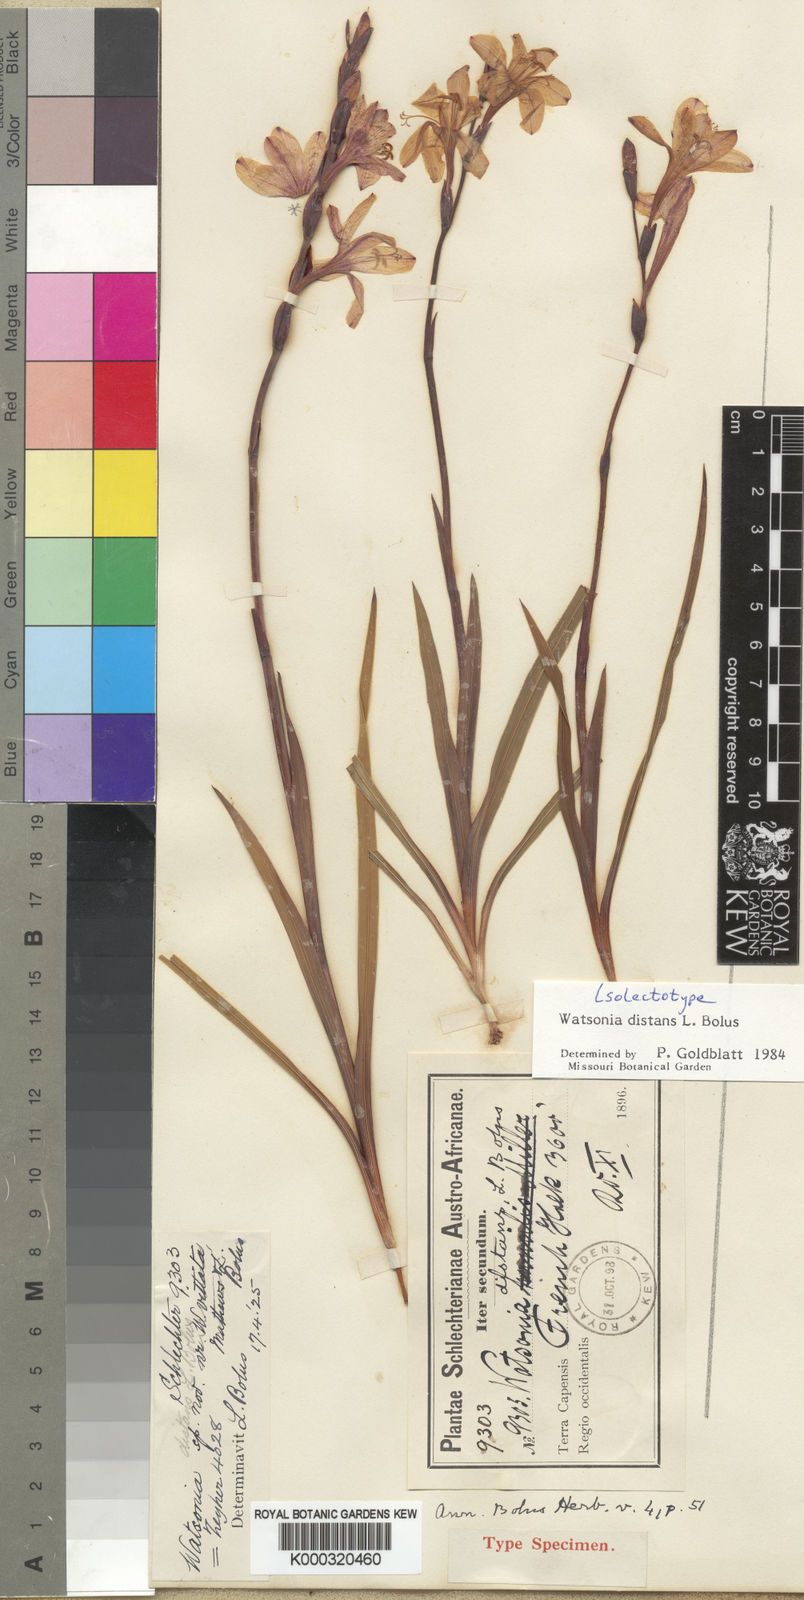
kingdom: Plantae
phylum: Tracheophyta
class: Liliopsida
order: Asparagales
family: Iridaceae
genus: Watsonia
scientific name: Watsonia distans
